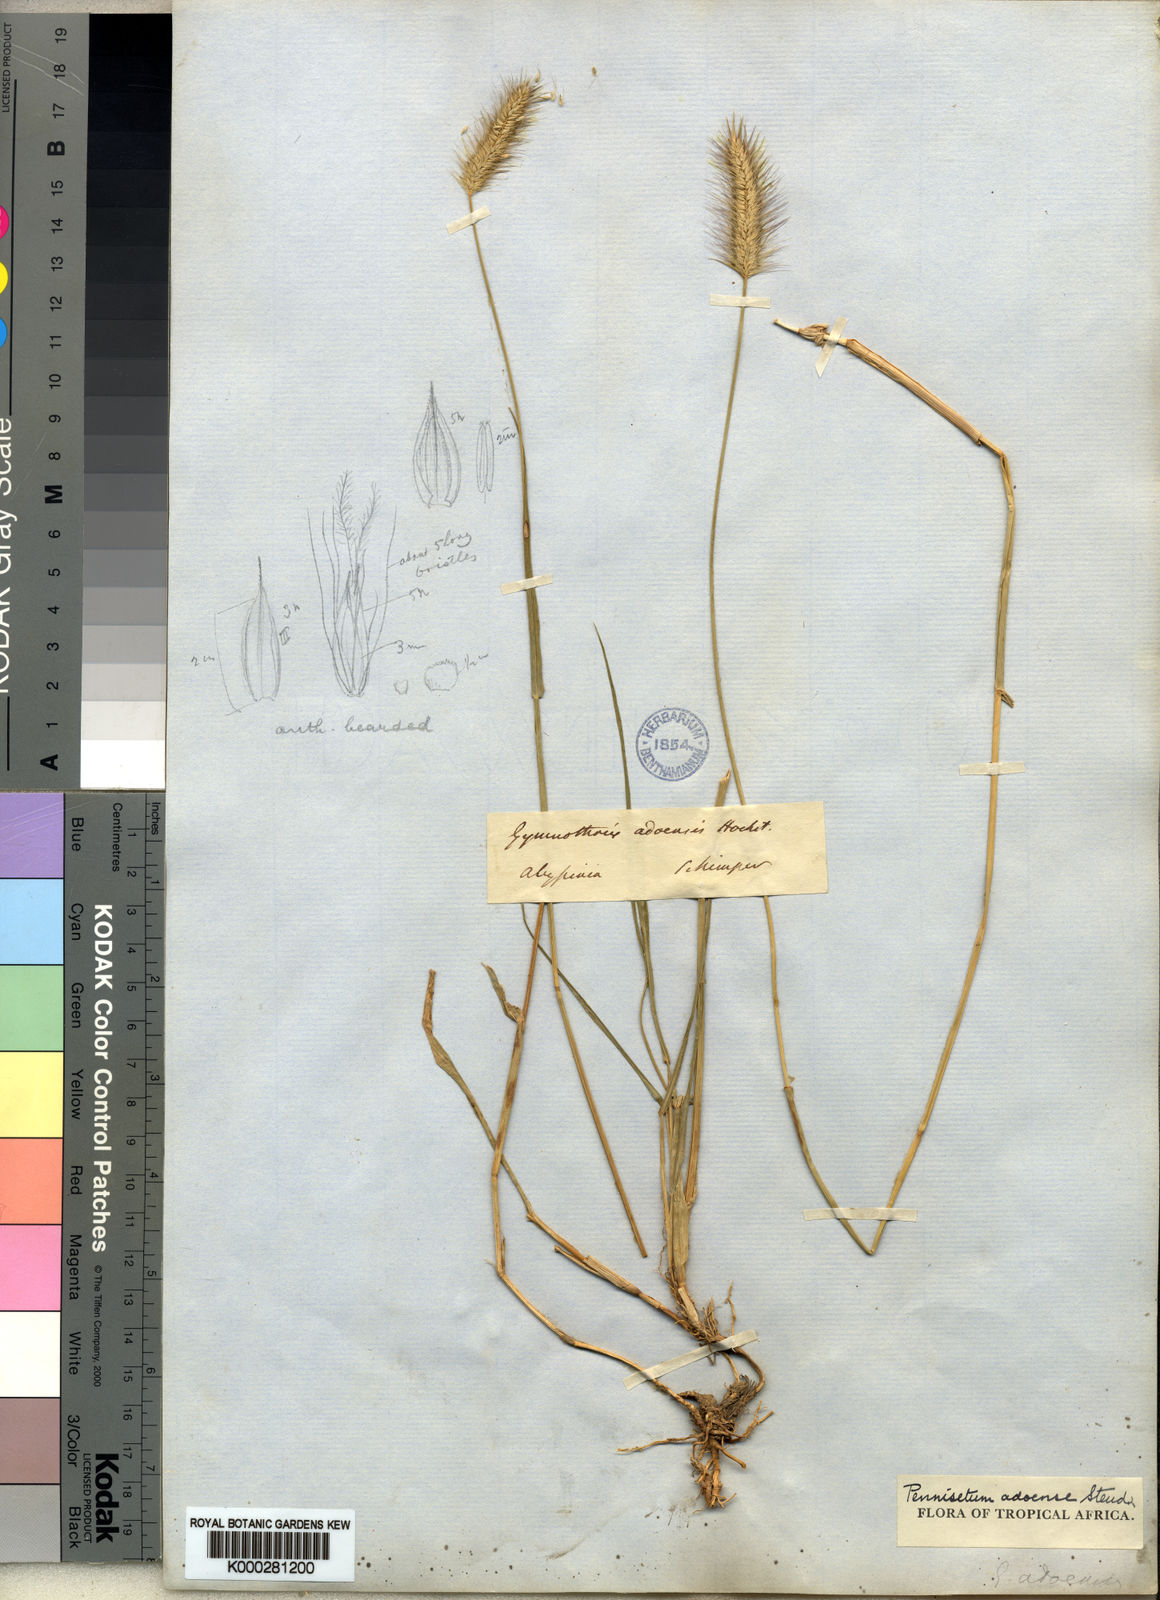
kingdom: Plantae
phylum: Tracheophyta
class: Liliopsida
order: Poales
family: Poaceae
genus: Cenchrus
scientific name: Cenchrus petiolaris
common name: Grass
